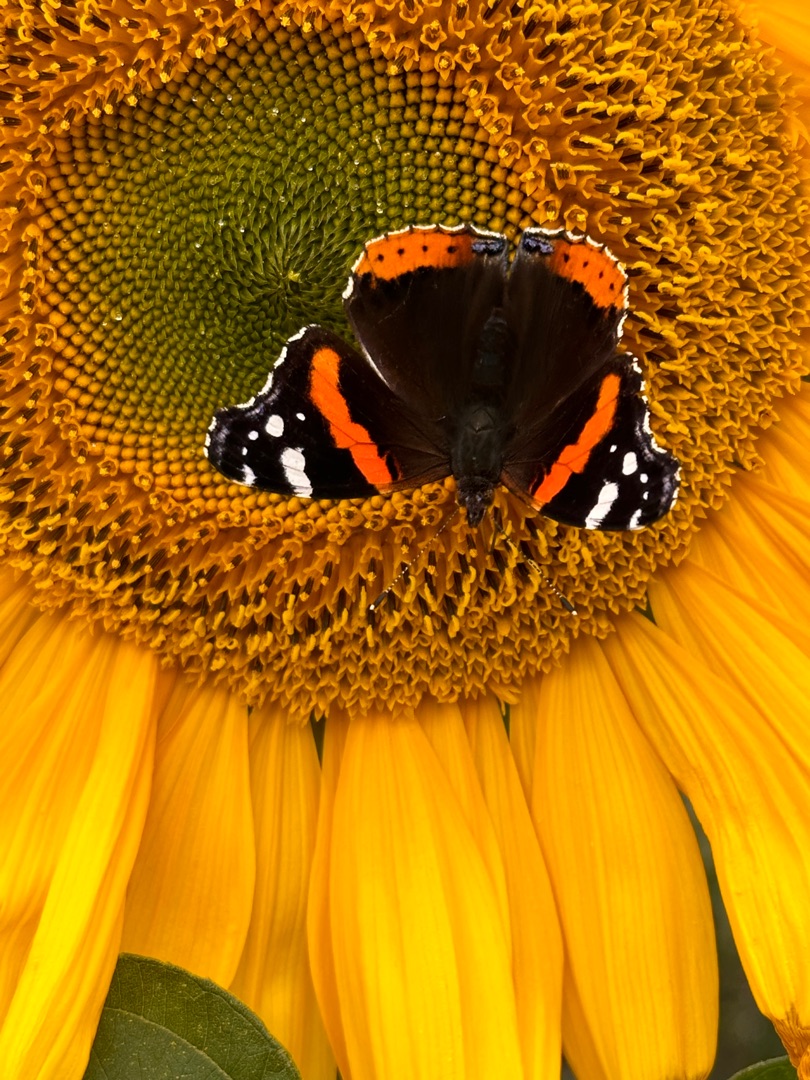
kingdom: Animalia
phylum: Arthropoda
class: Insecta
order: Lepidoptera
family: Nymphalidae
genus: Vanessa
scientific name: Vanessa atalanta
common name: Admiral
